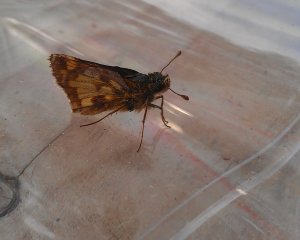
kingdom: Animalia
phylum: Arthropoda
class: Insecta
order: Lepidoptera
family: Hesperiidae
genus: Polites
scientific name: Polites coras
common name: Peck's Skipper
